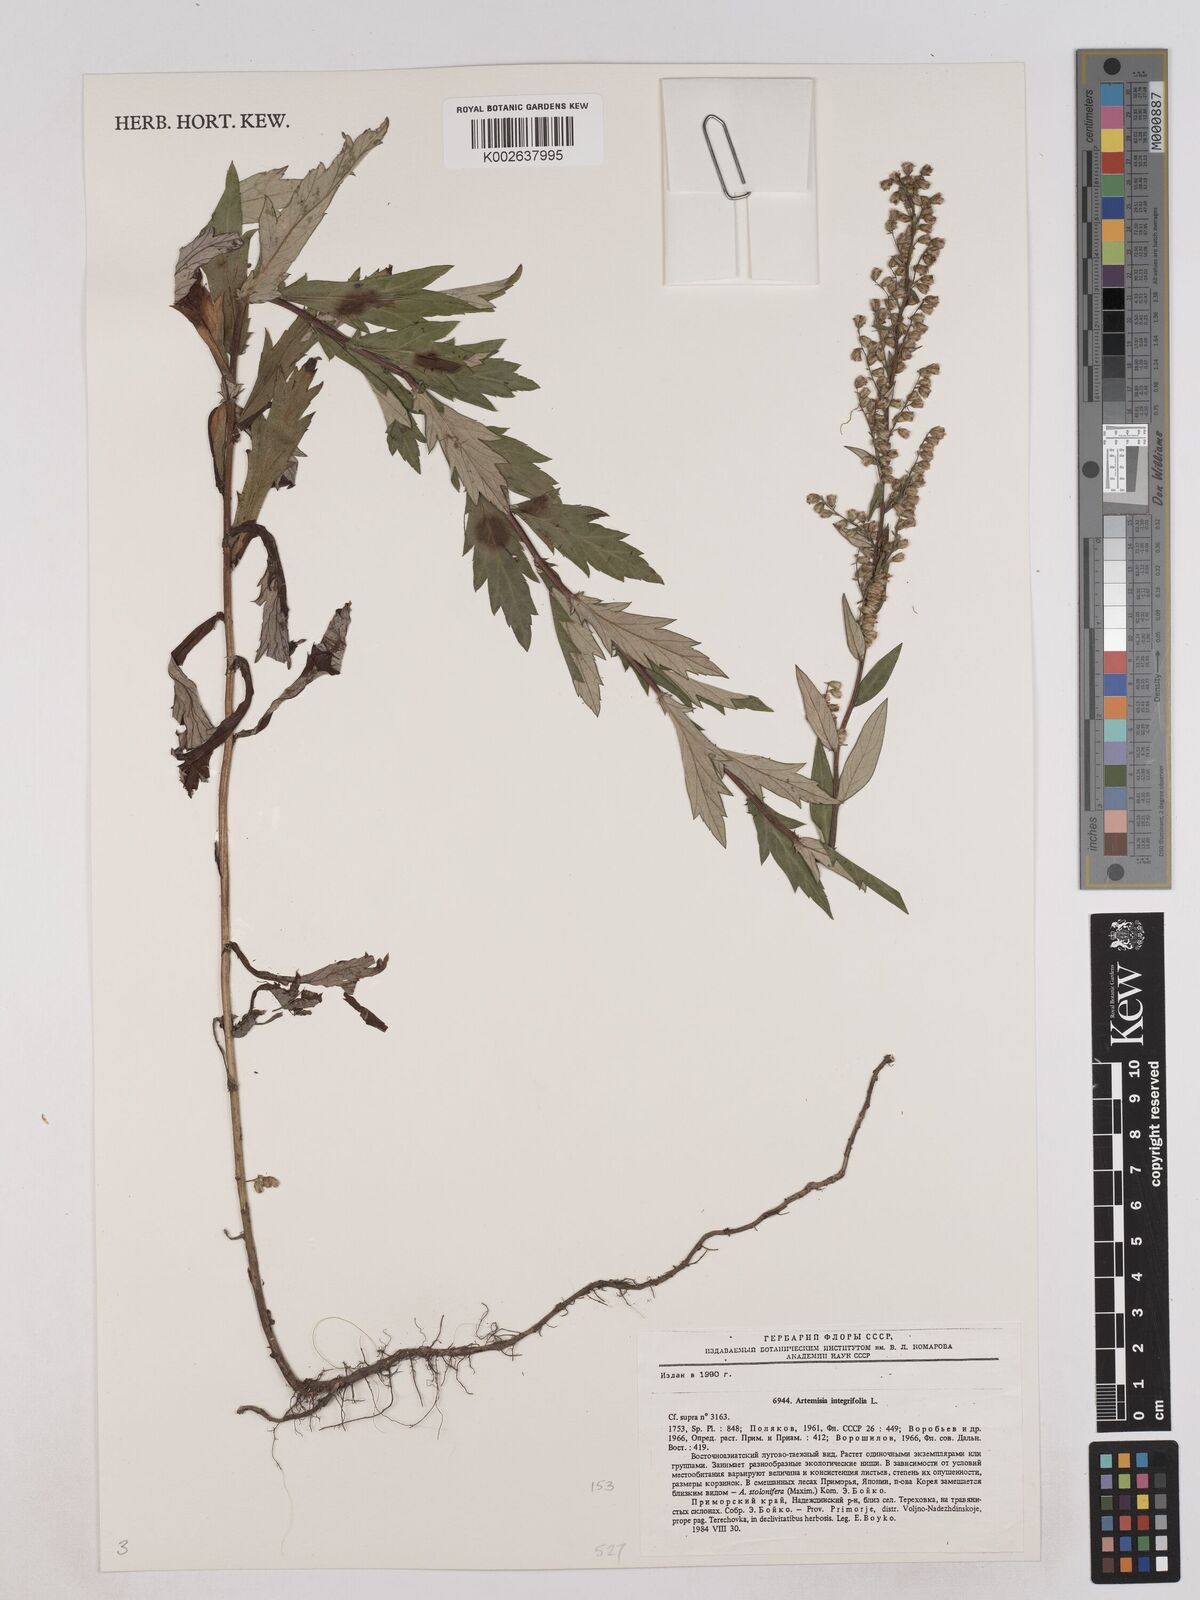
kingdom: Plantae
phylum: Tracheophyta
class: Magnoliopsida
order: Asterales
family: Asteraceae
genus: Artemisia
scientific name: Artemisia integrifolia
